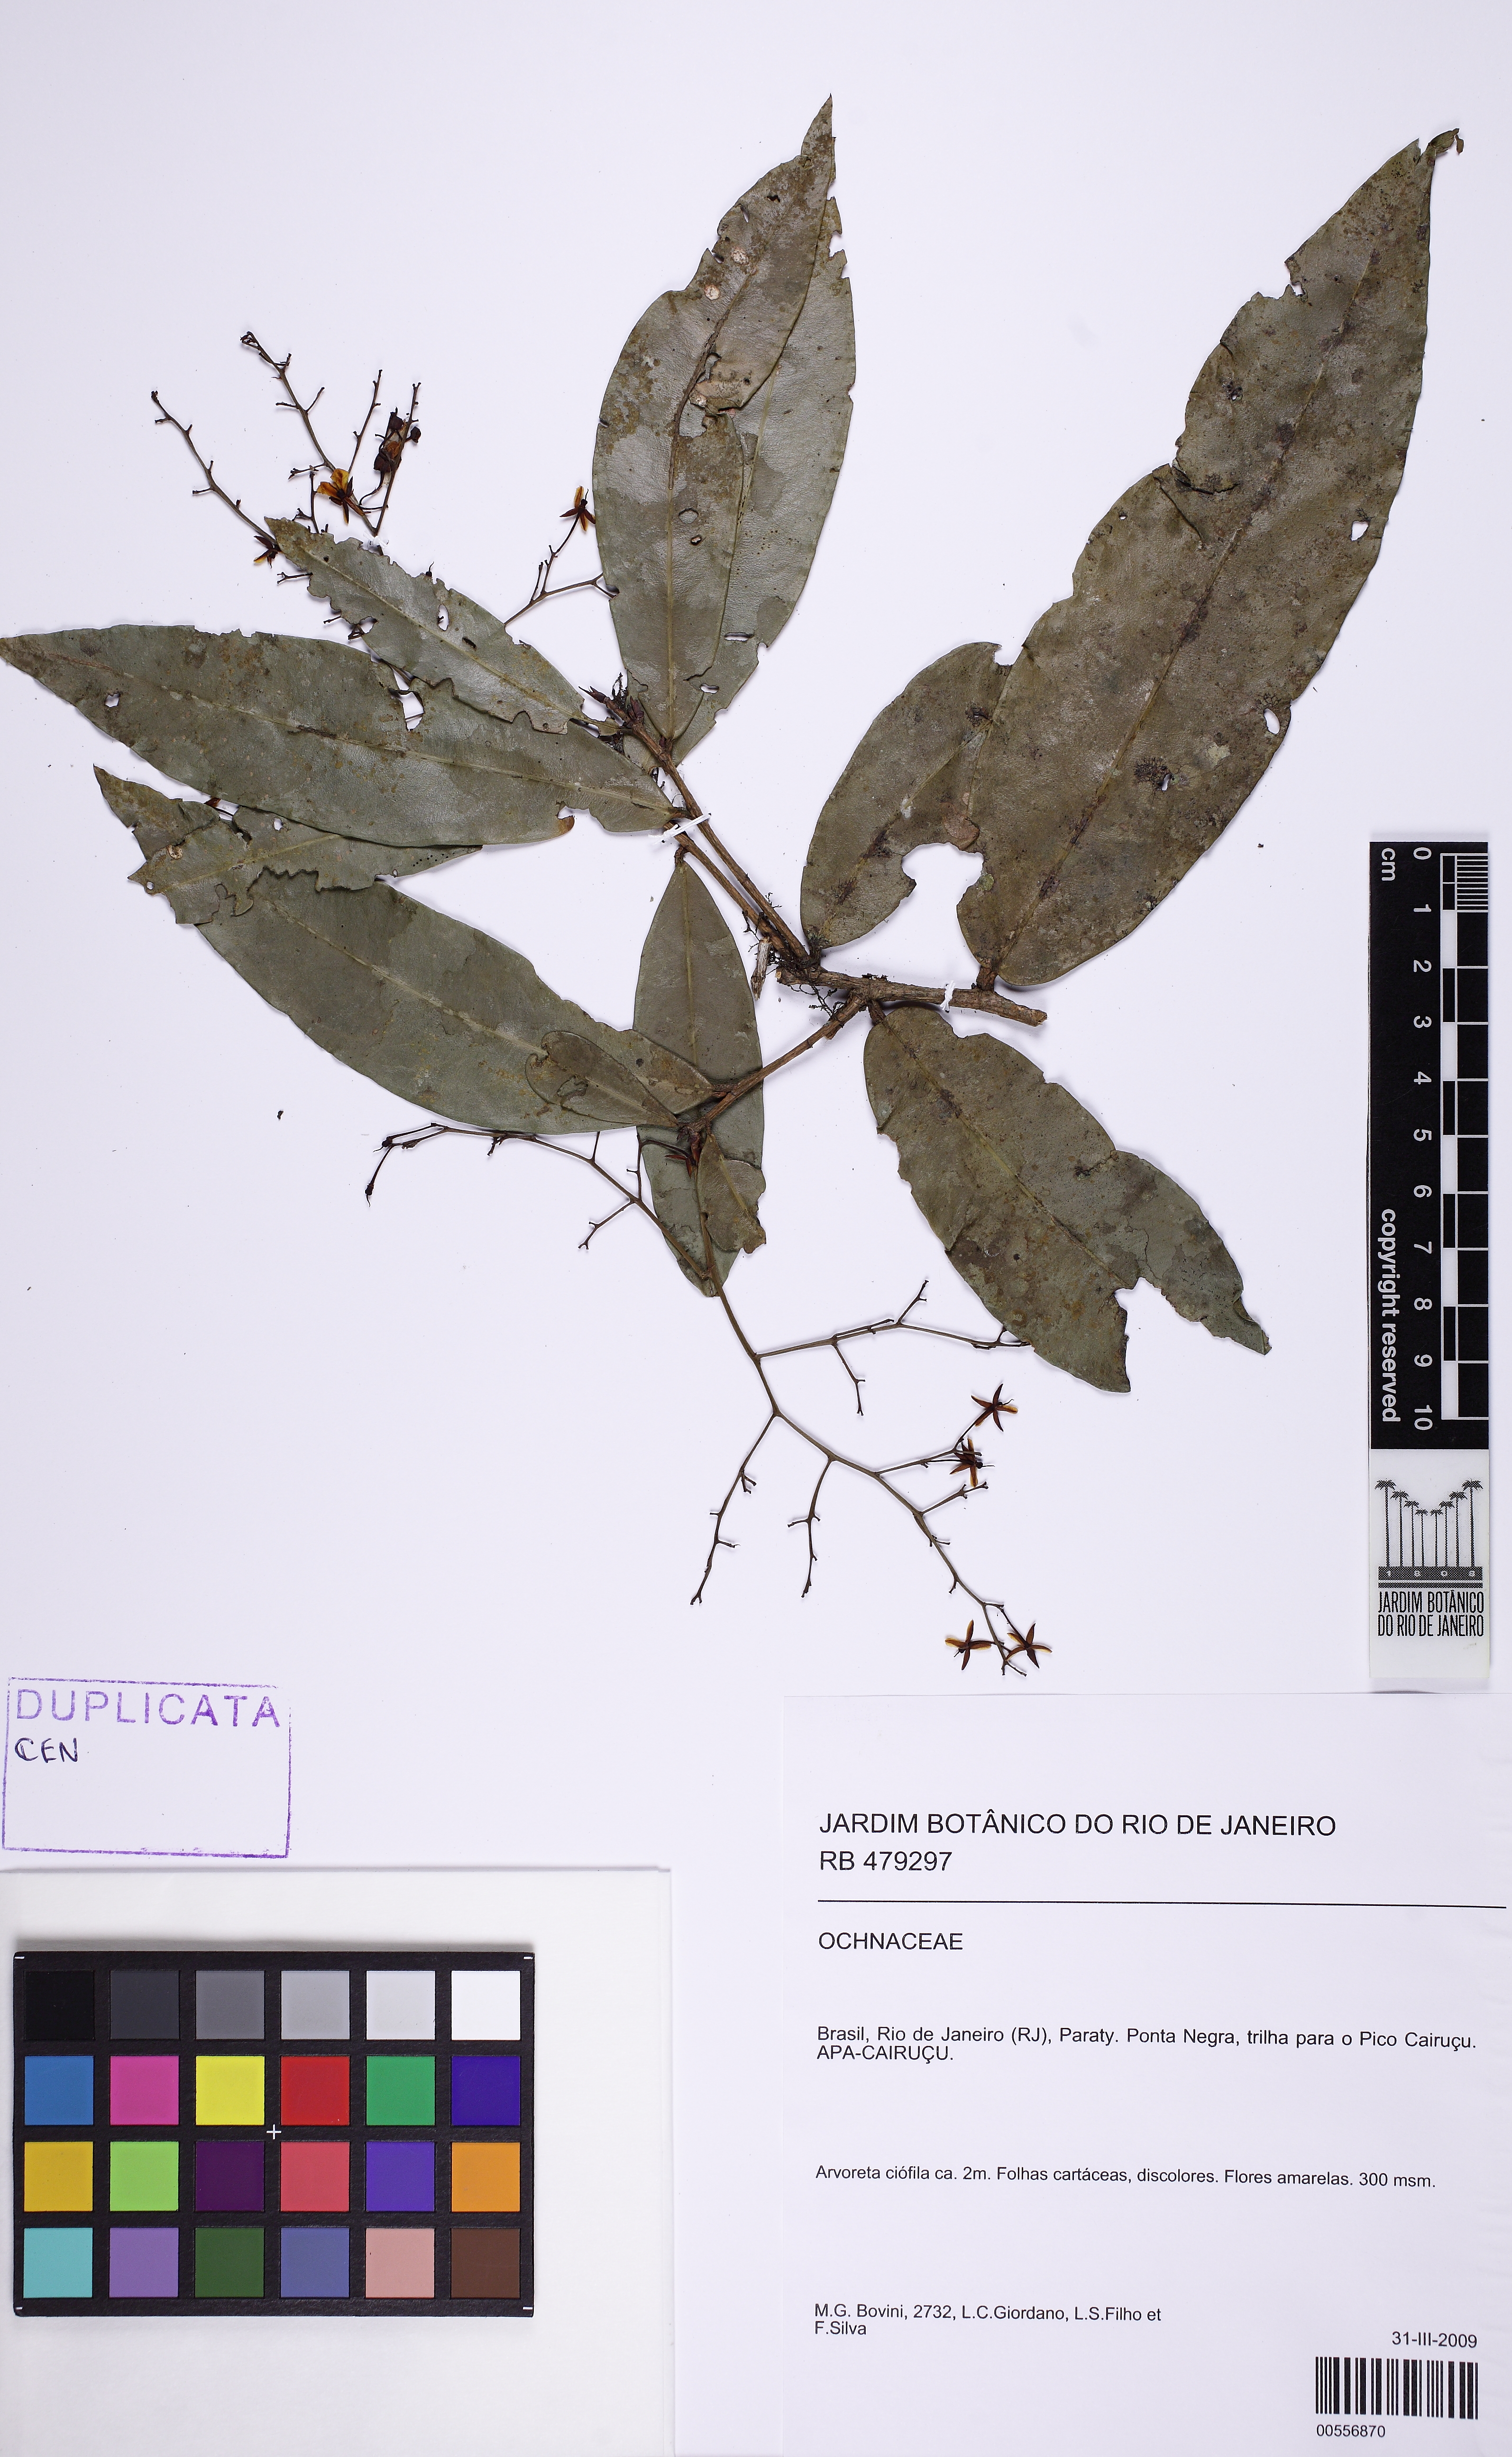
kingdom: Plantae
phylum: Tracheophyta
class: Magnoliopsida
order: Malpighiales
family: Ochnaceae
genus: Ouratea
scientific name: Ouratea
